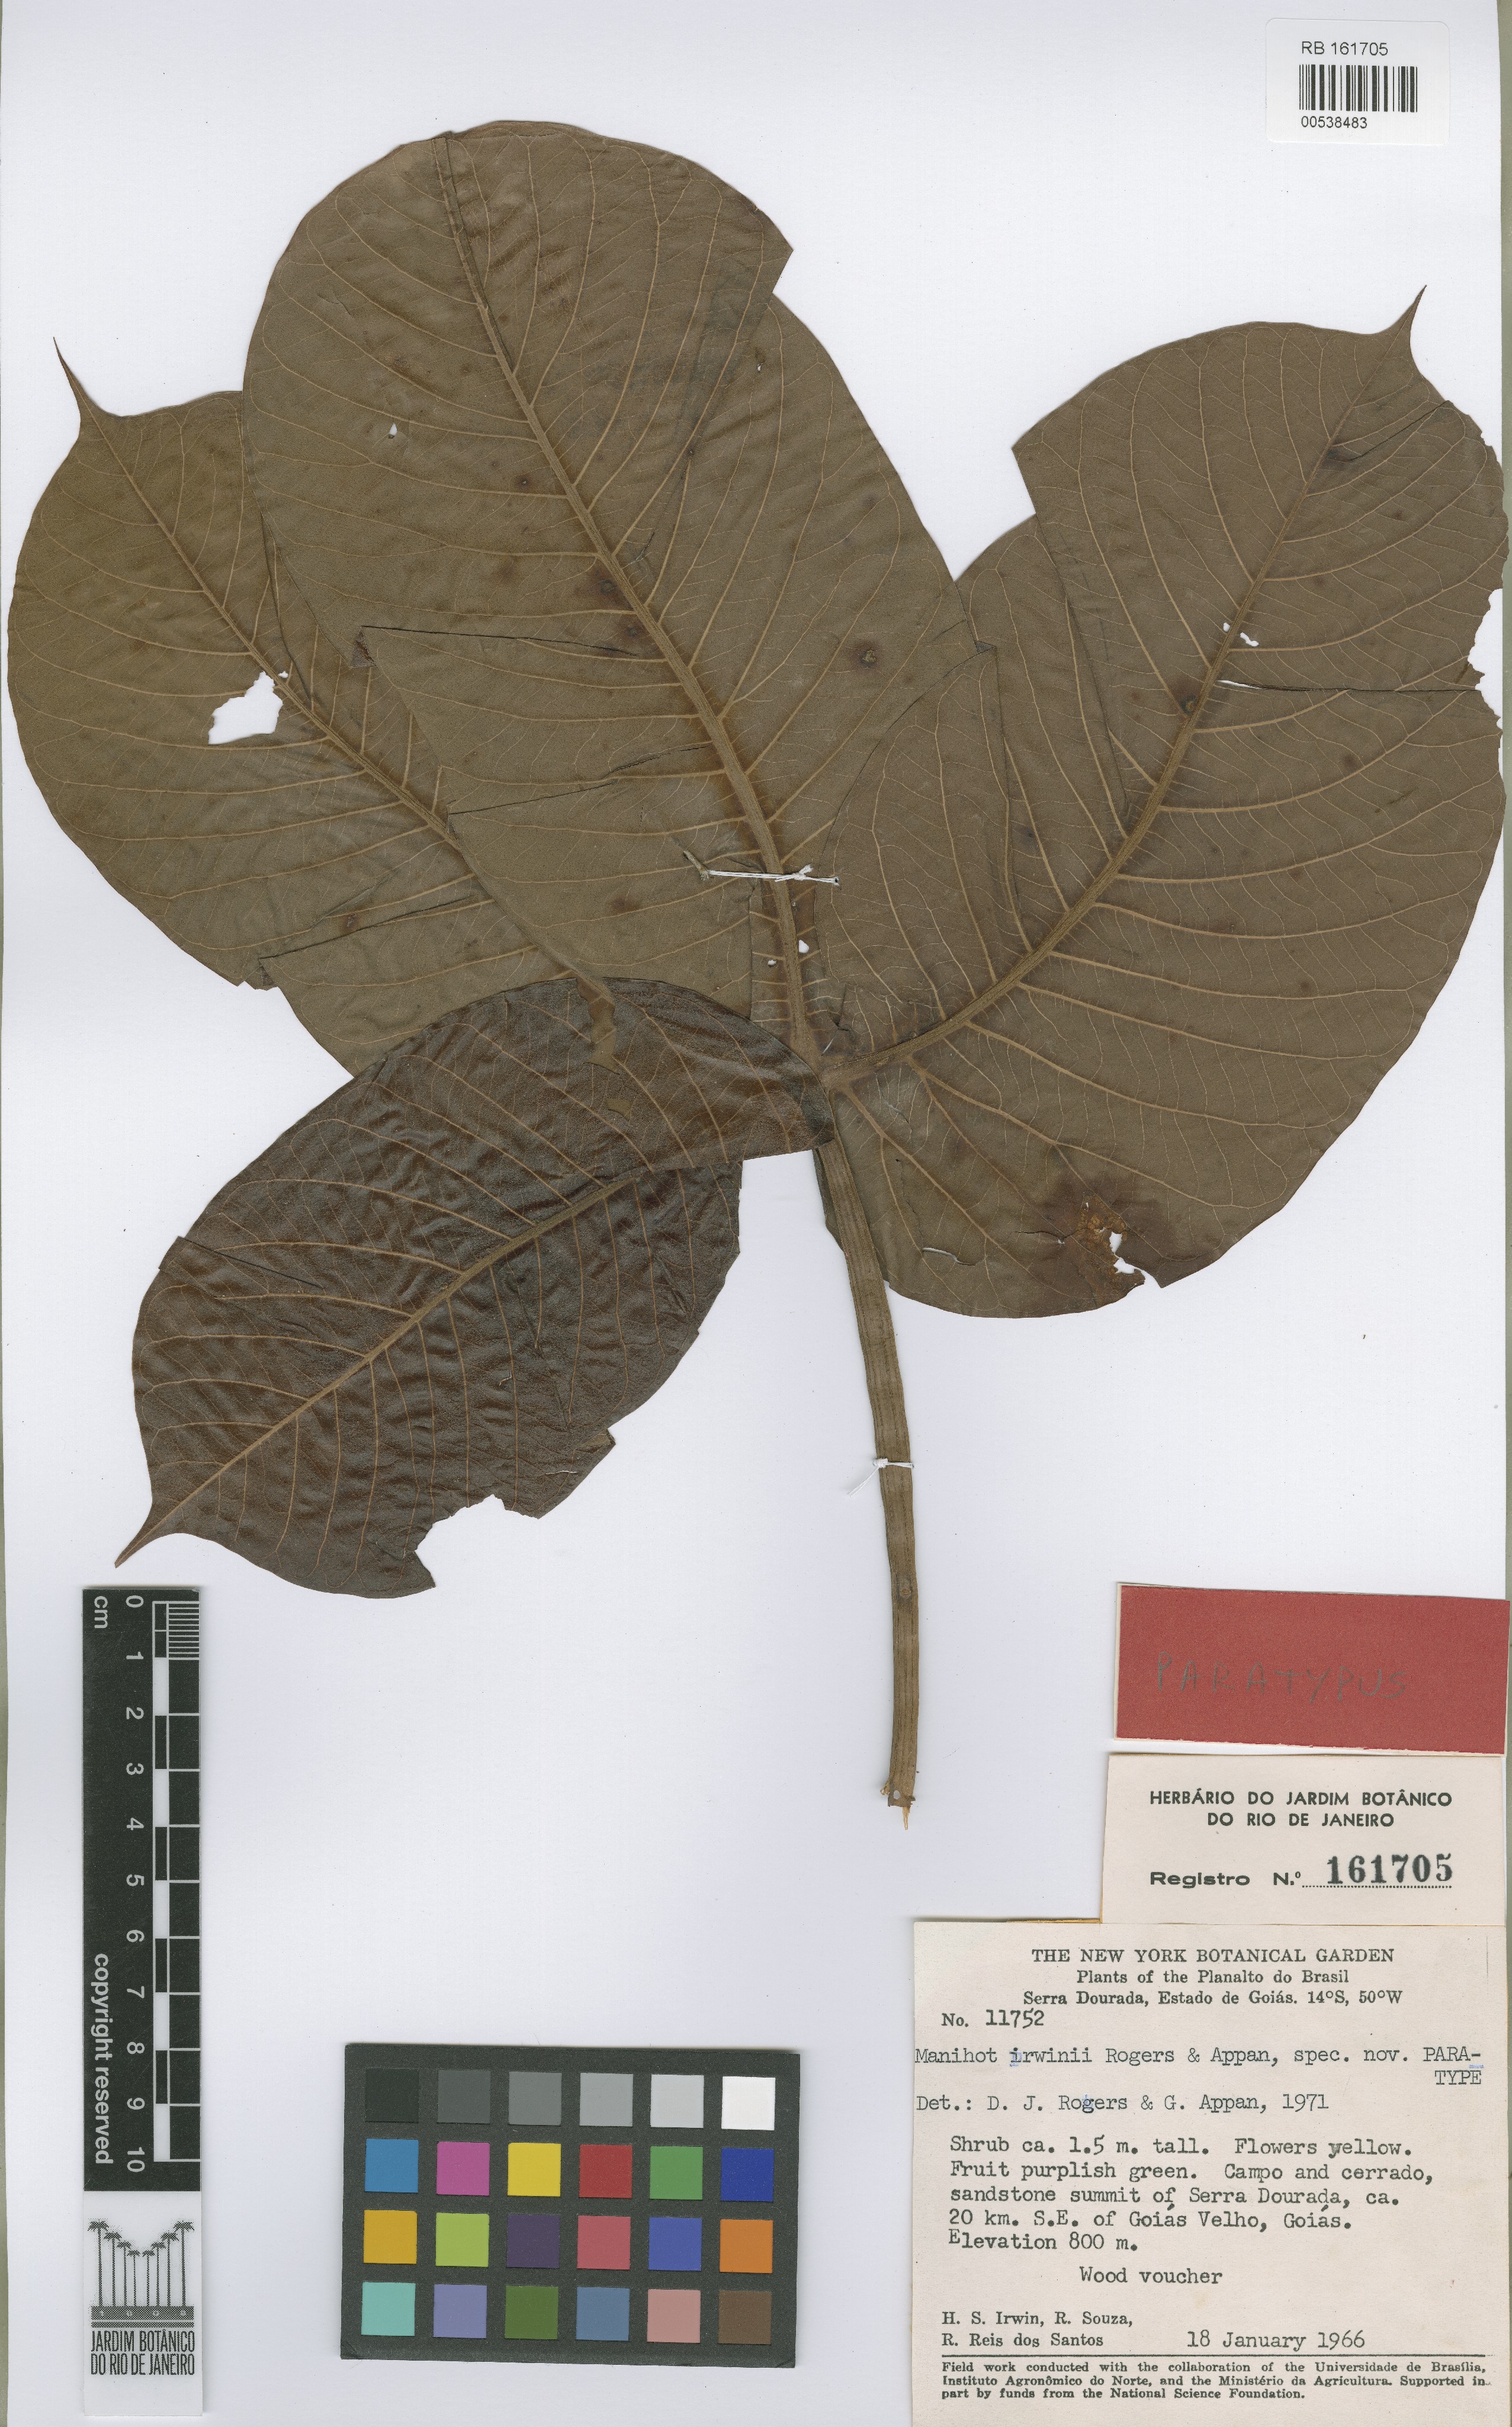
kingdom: Plantae
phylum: Tracheophyta
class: Magnoliopsida
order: Malpighiales
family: Euphorbiaceae
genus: Manihot
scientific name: Manihot irwinii
